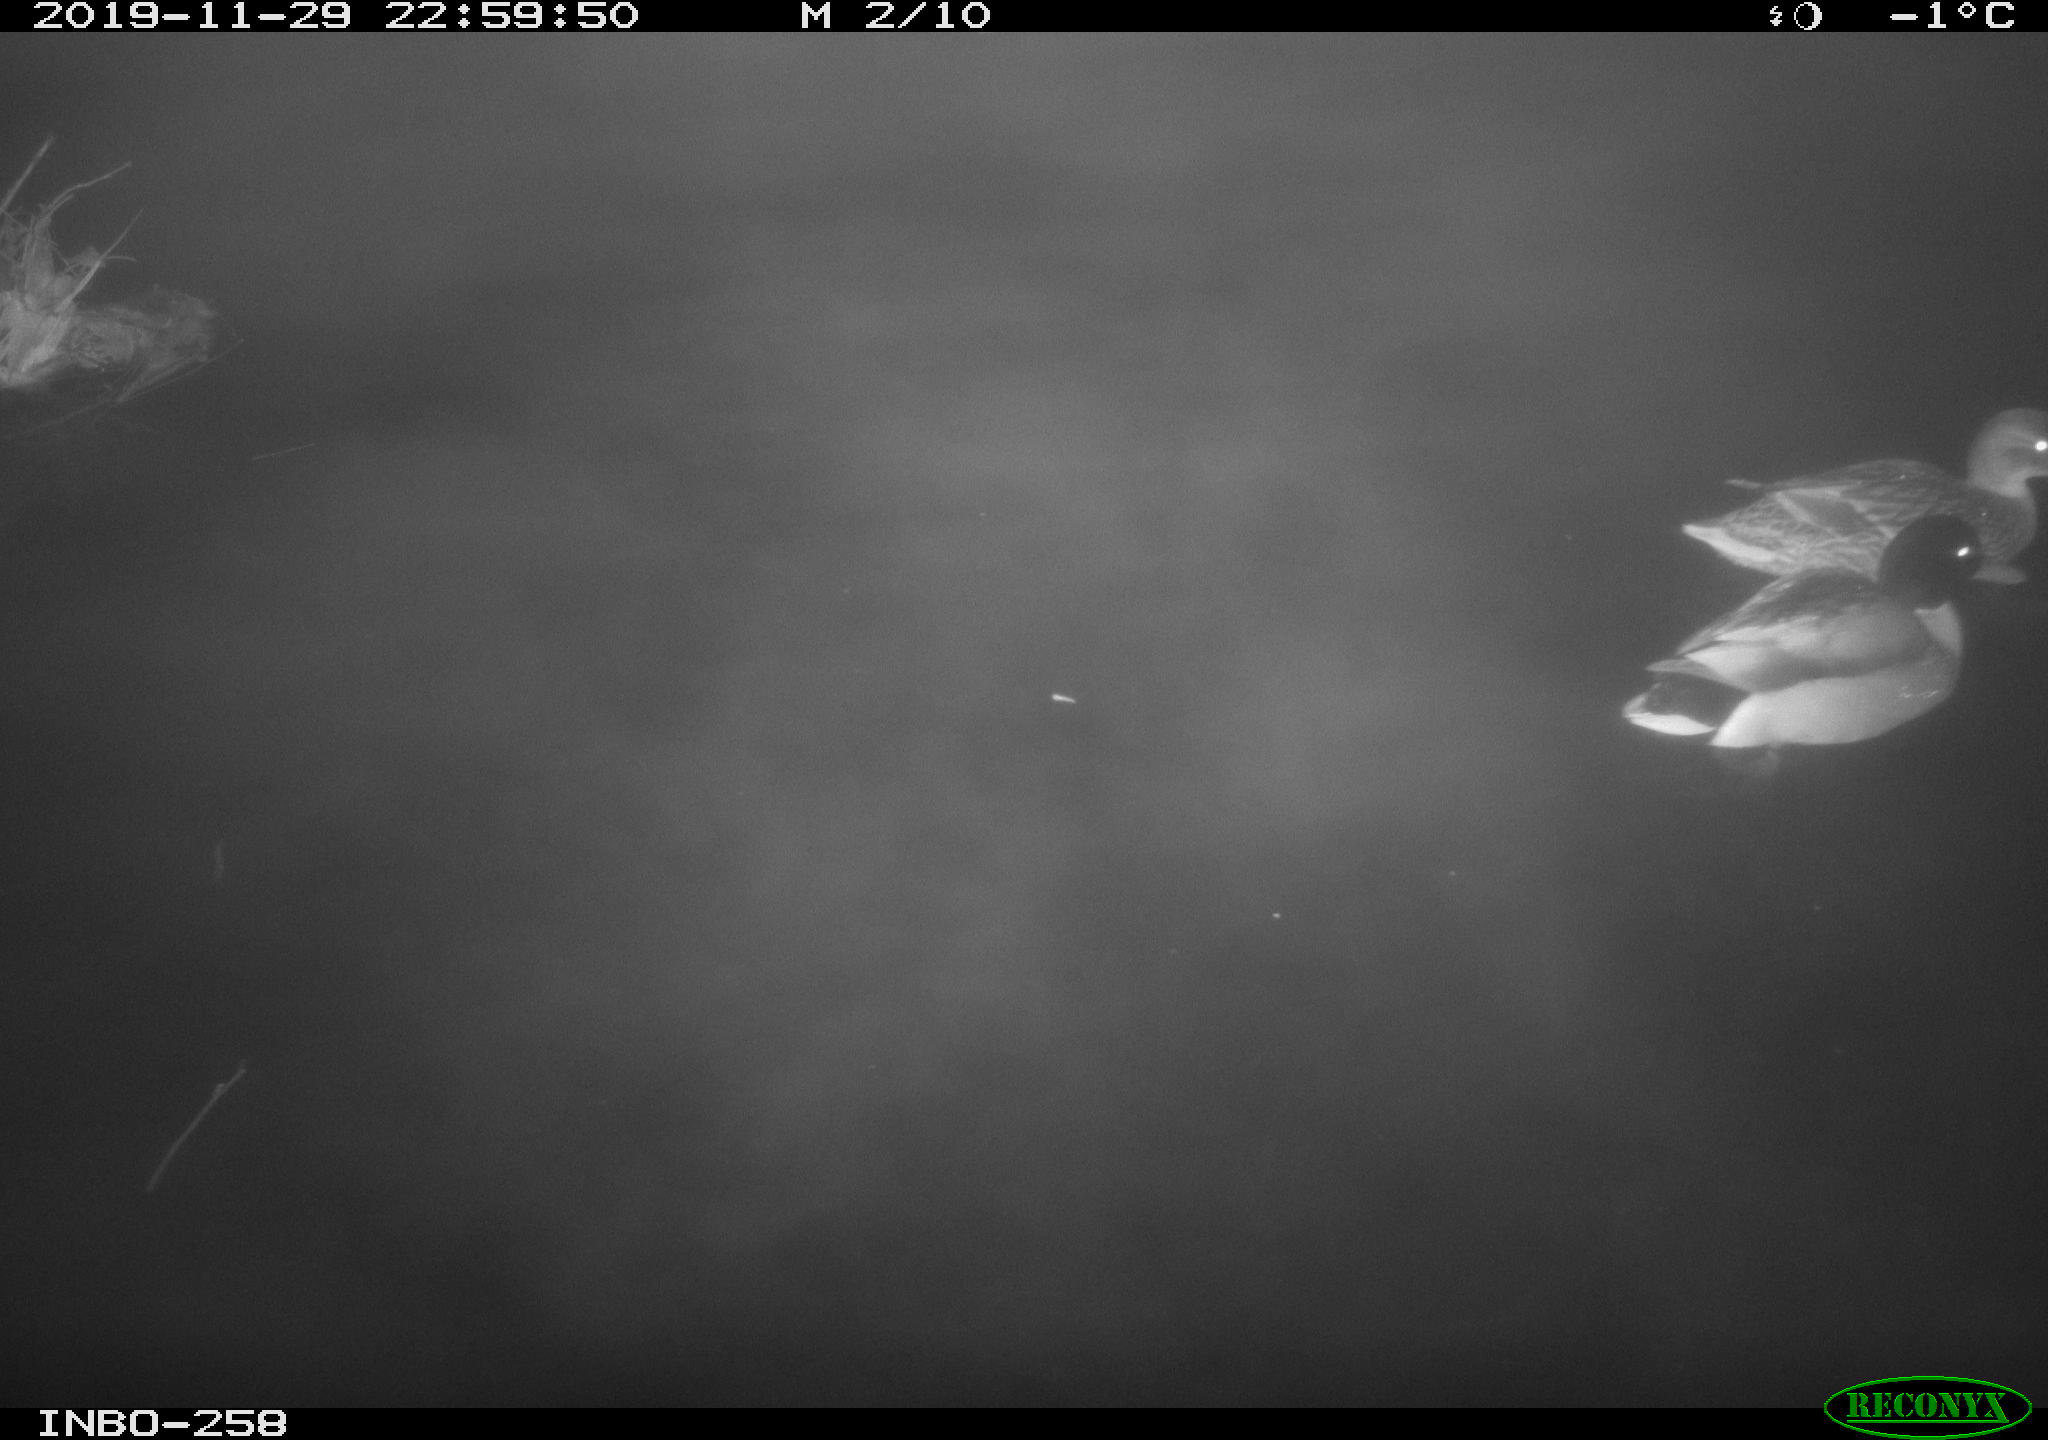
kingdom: Animalia
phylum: Chordata
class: Aves
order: Anseriformes
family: Anatidae
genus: Anas
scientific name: Anas platyrhynchos
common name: Mallard
